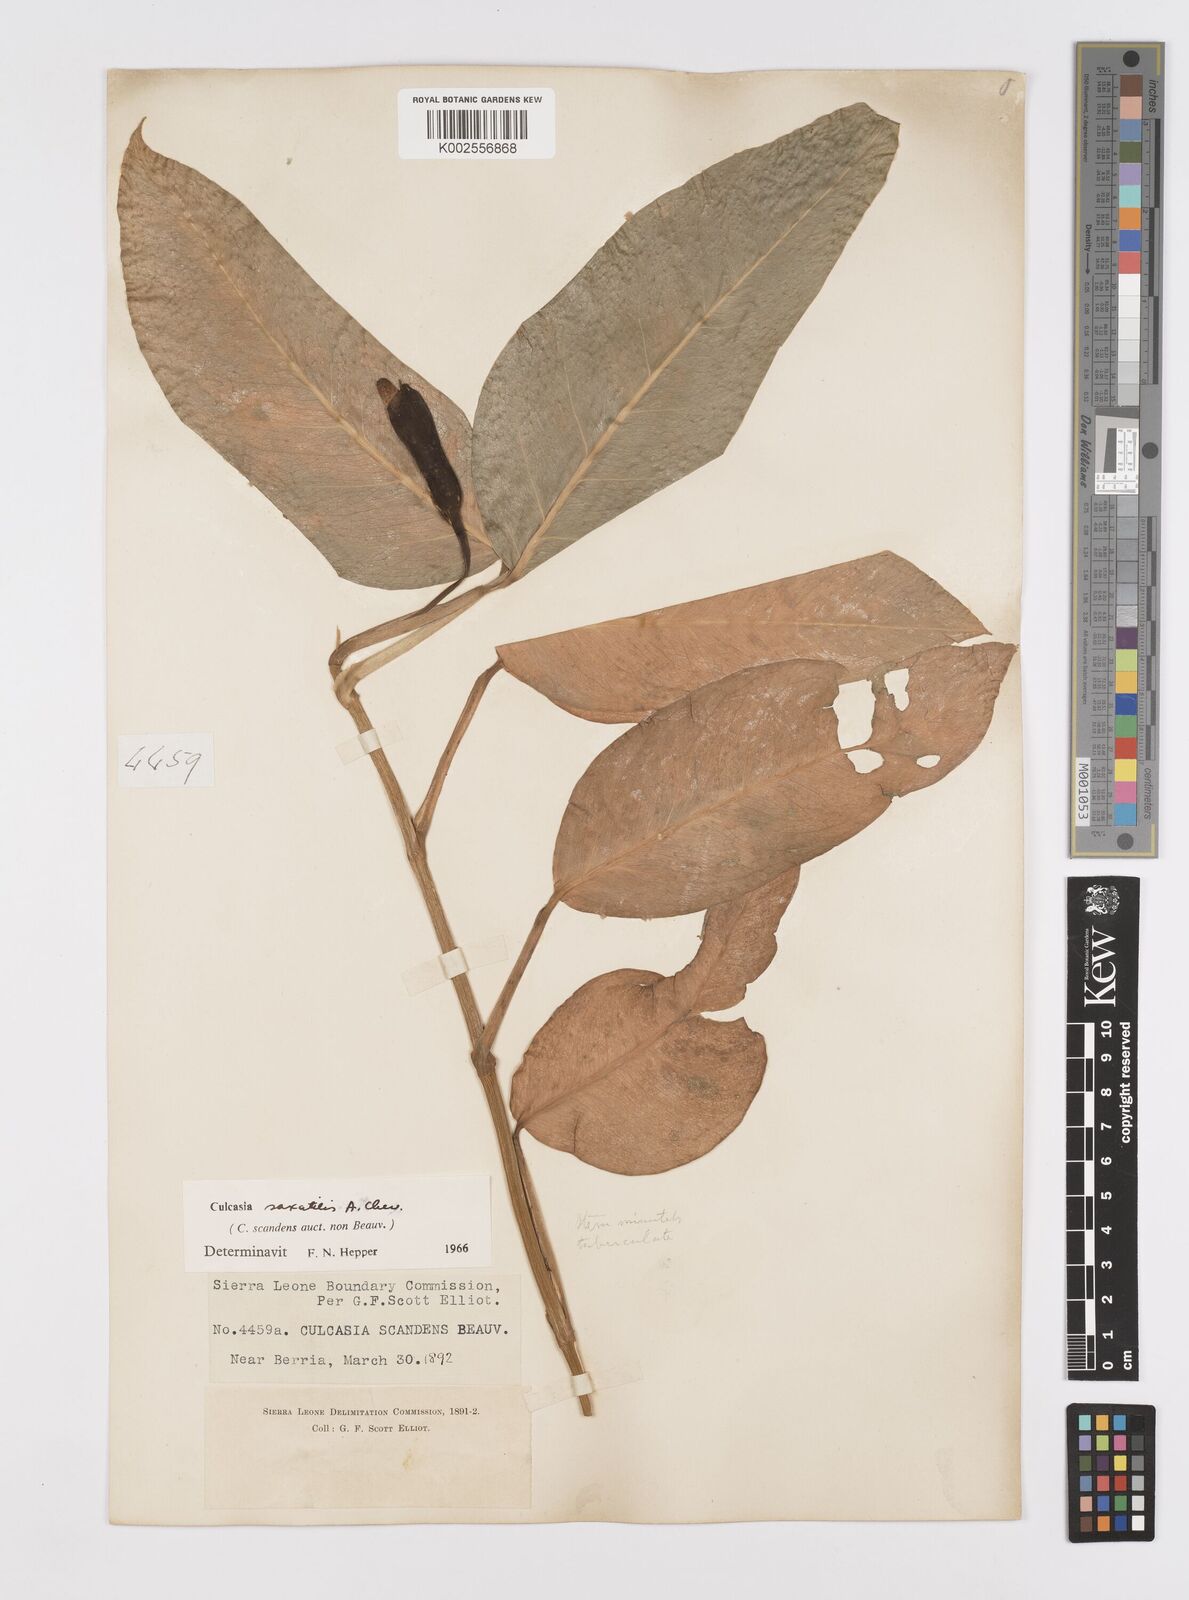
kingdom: Plantae
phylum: Tracheophyta
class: Liliopsida
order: Alismatales
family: Araceae
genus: Culcasia
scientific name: Culcasia scandens
